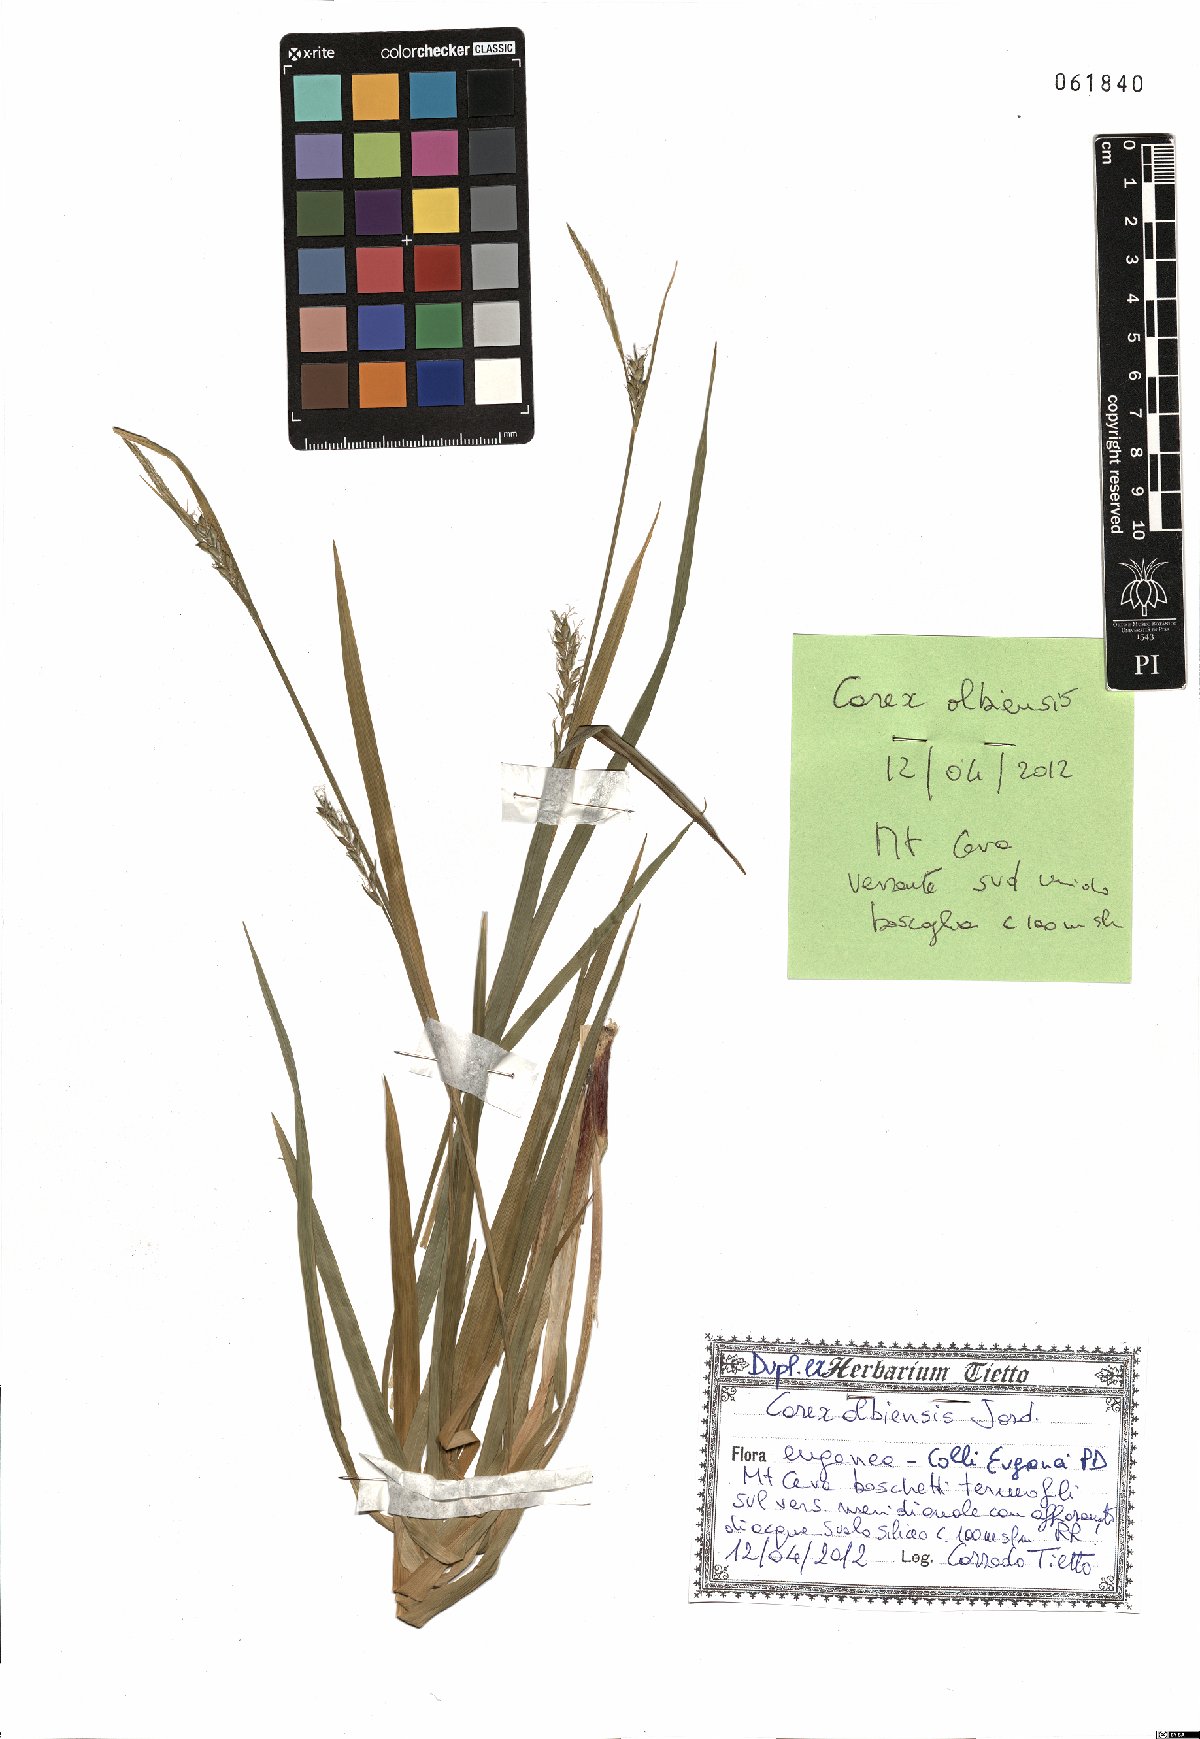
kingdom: Plantae
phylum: Tracheophyta
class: Liliopsida
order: Poales
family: Cyperaceae
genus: Carex
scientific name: Carex olbiensis
